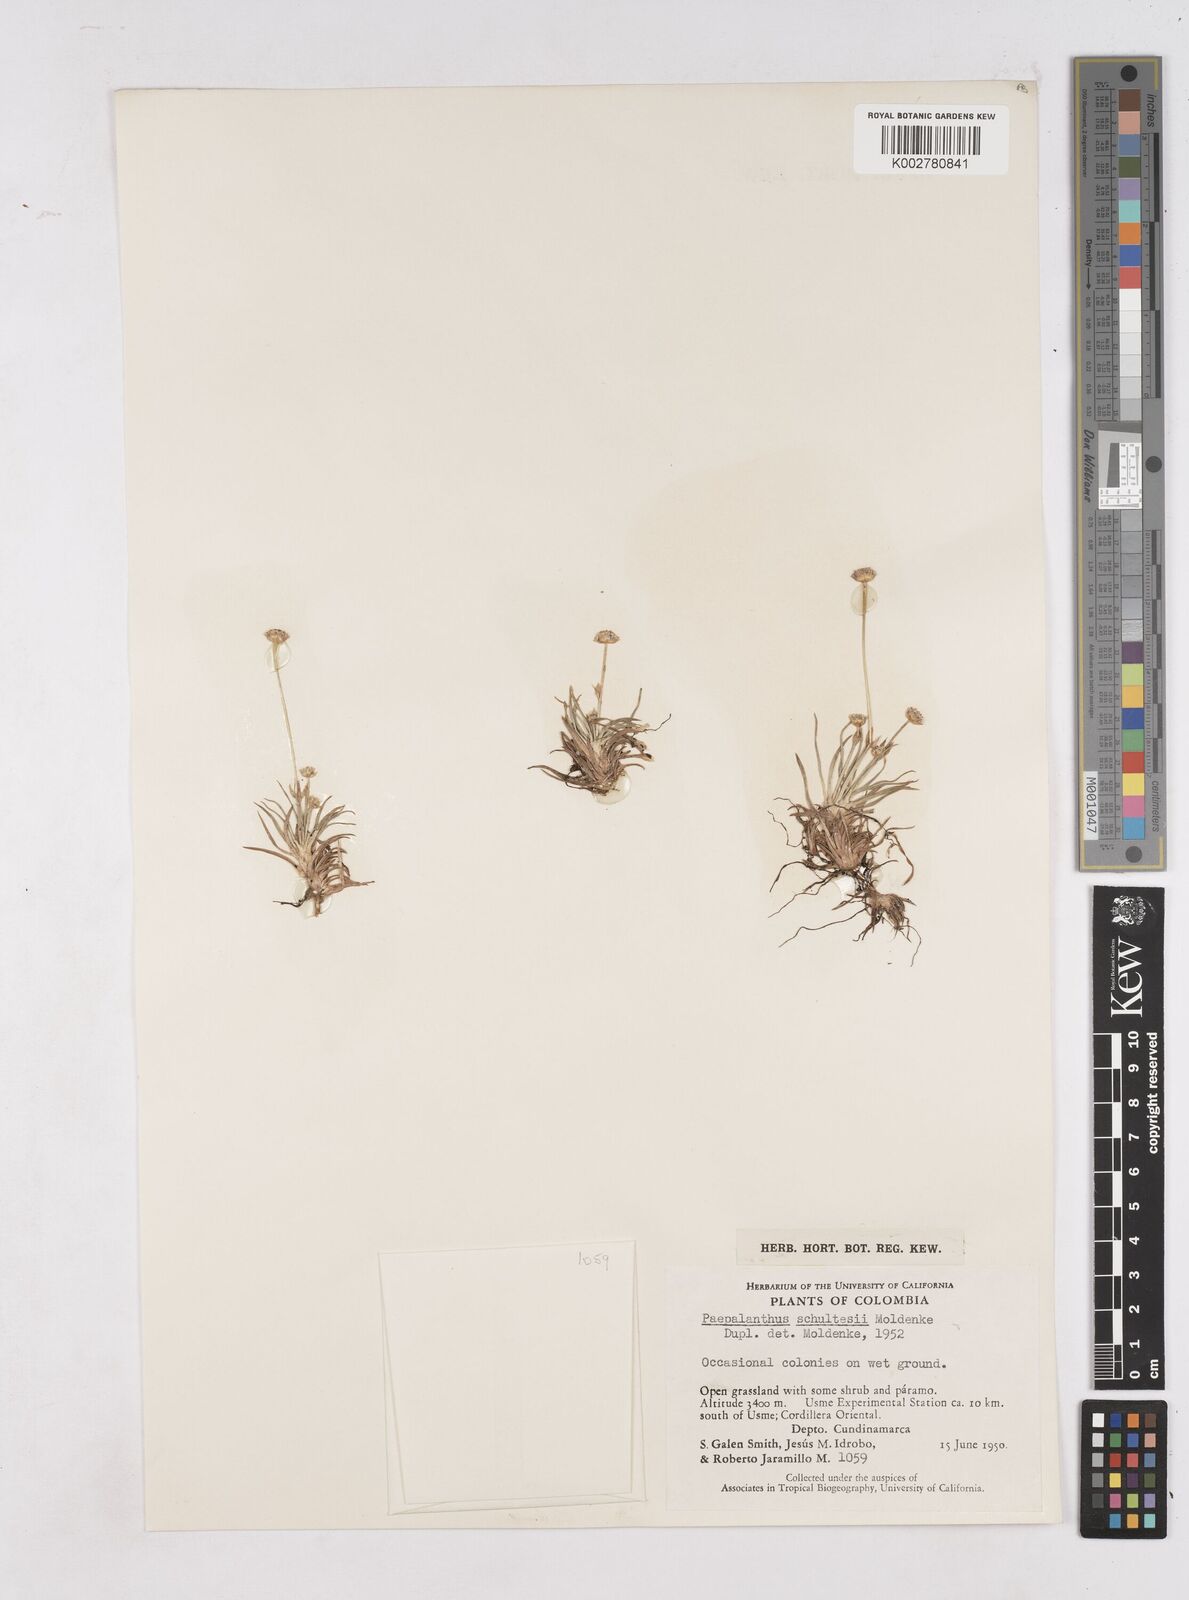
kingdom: Plantae
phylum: Tracheophyta
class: Liliopsida
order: Poales
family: Eriocaulaceae
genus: Paepalanthus
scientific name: Paepalanthus pilosus
